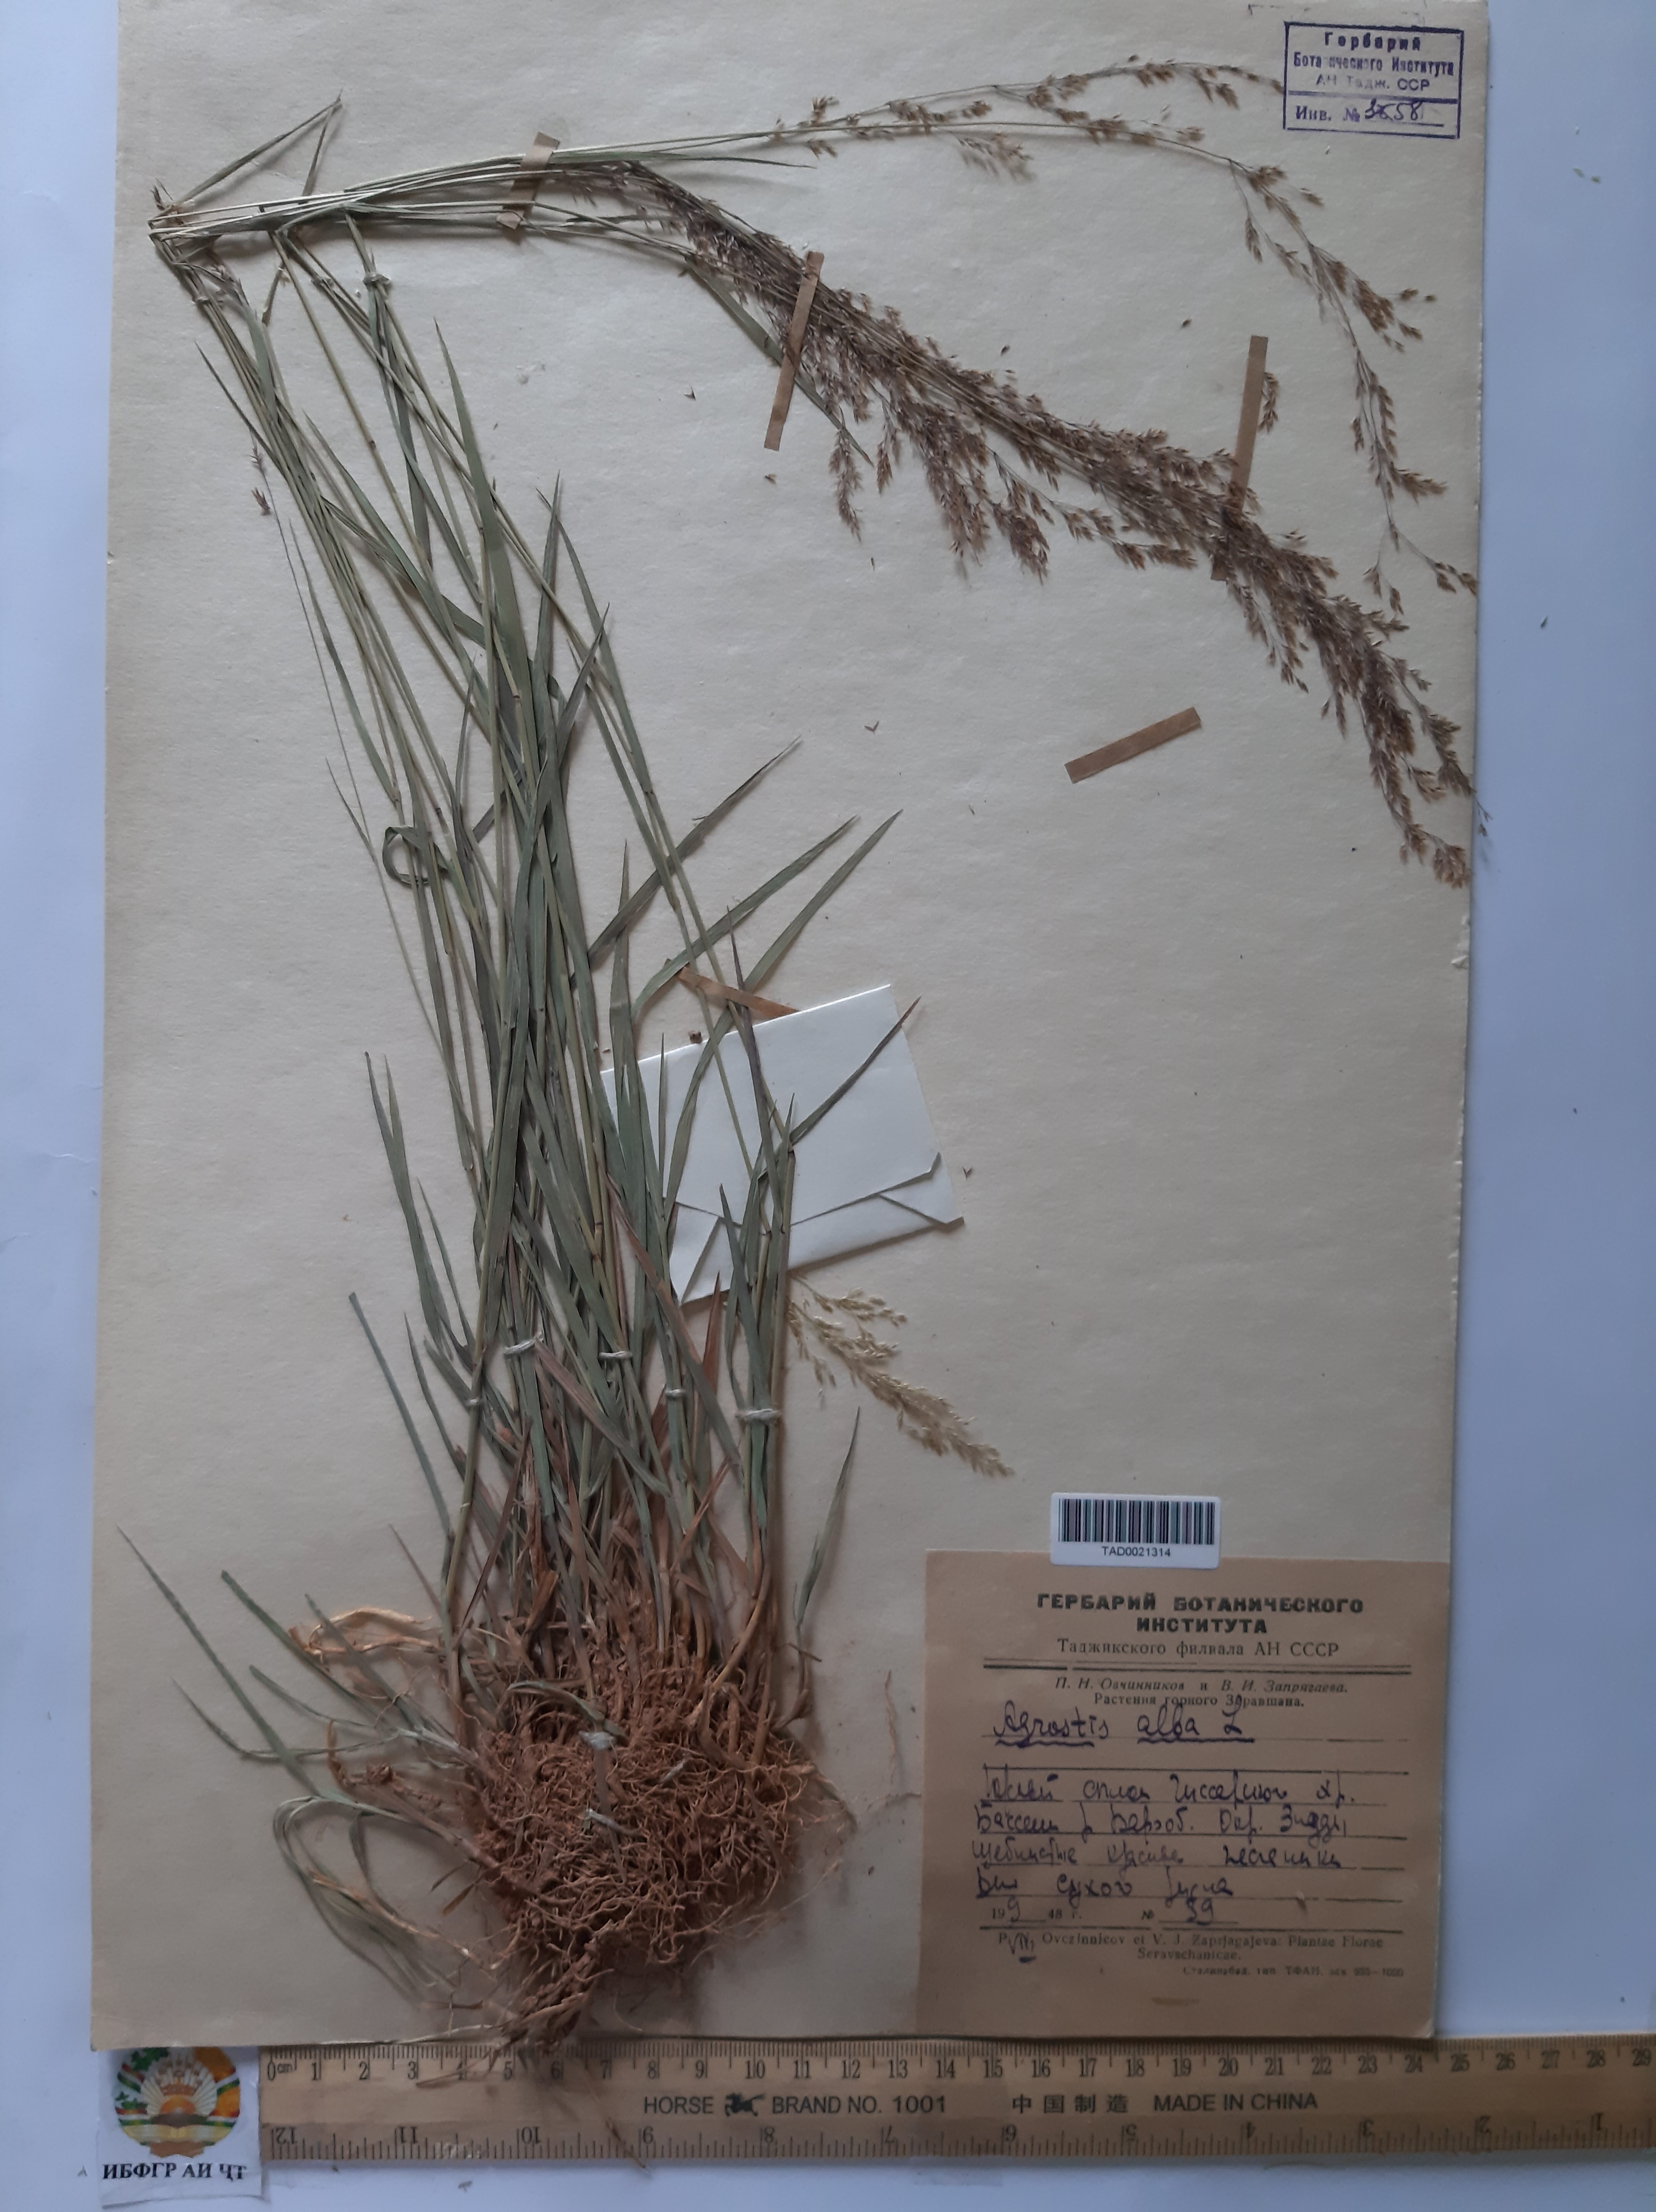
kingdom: Plantae
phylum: Tracheophyta
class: Liliopsida
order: Poales
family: Poaceae
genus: Poa
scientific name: Poa nemoralis
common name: Wood bluegrass
